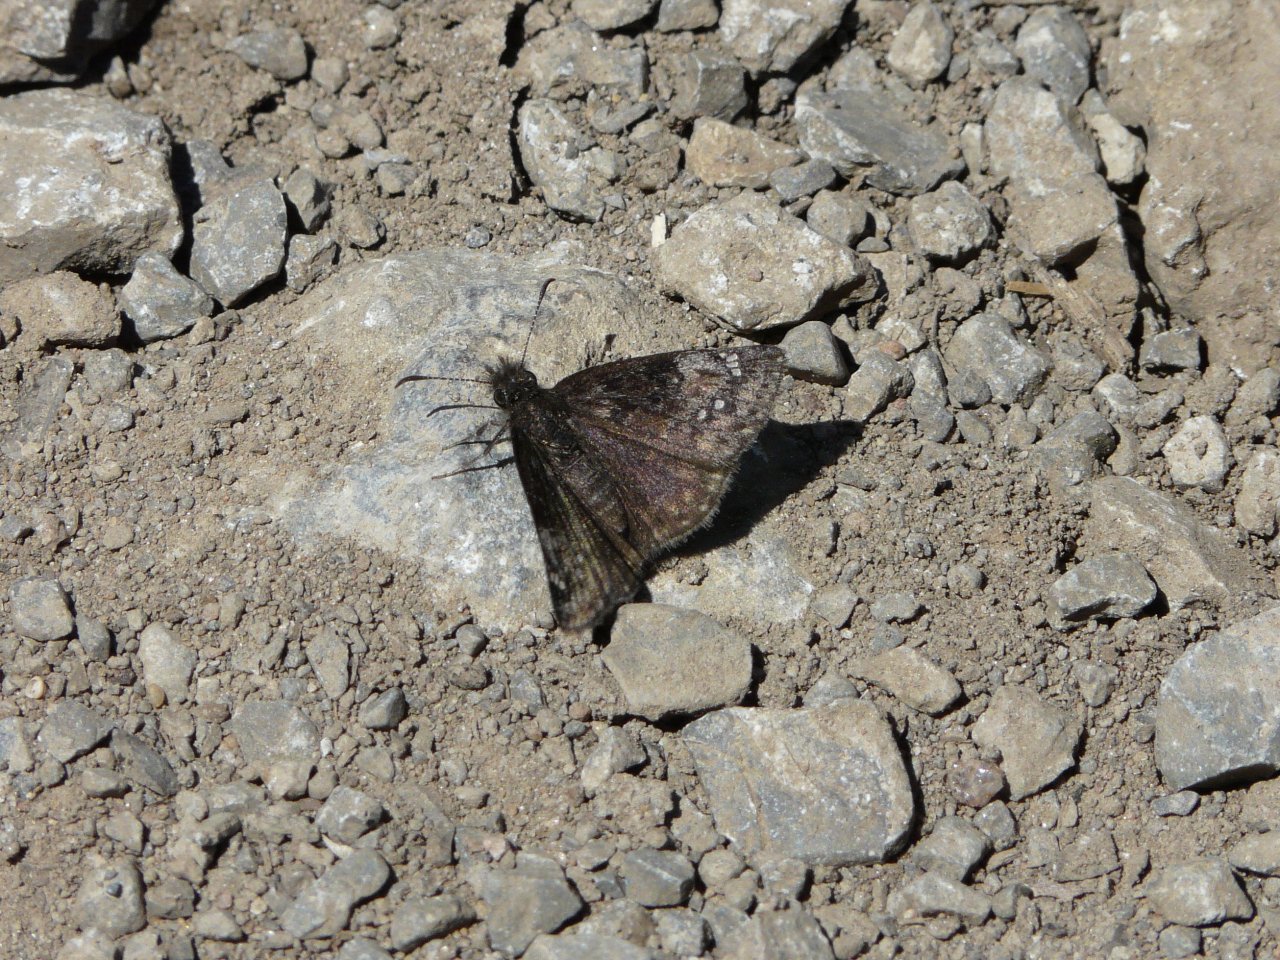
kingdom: Animalia
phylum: Arthropoda
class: Insecta
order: Lepidoptera
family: Hesperiidae
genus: Gesta
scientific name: Gesta
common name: Columbine Duskywing
